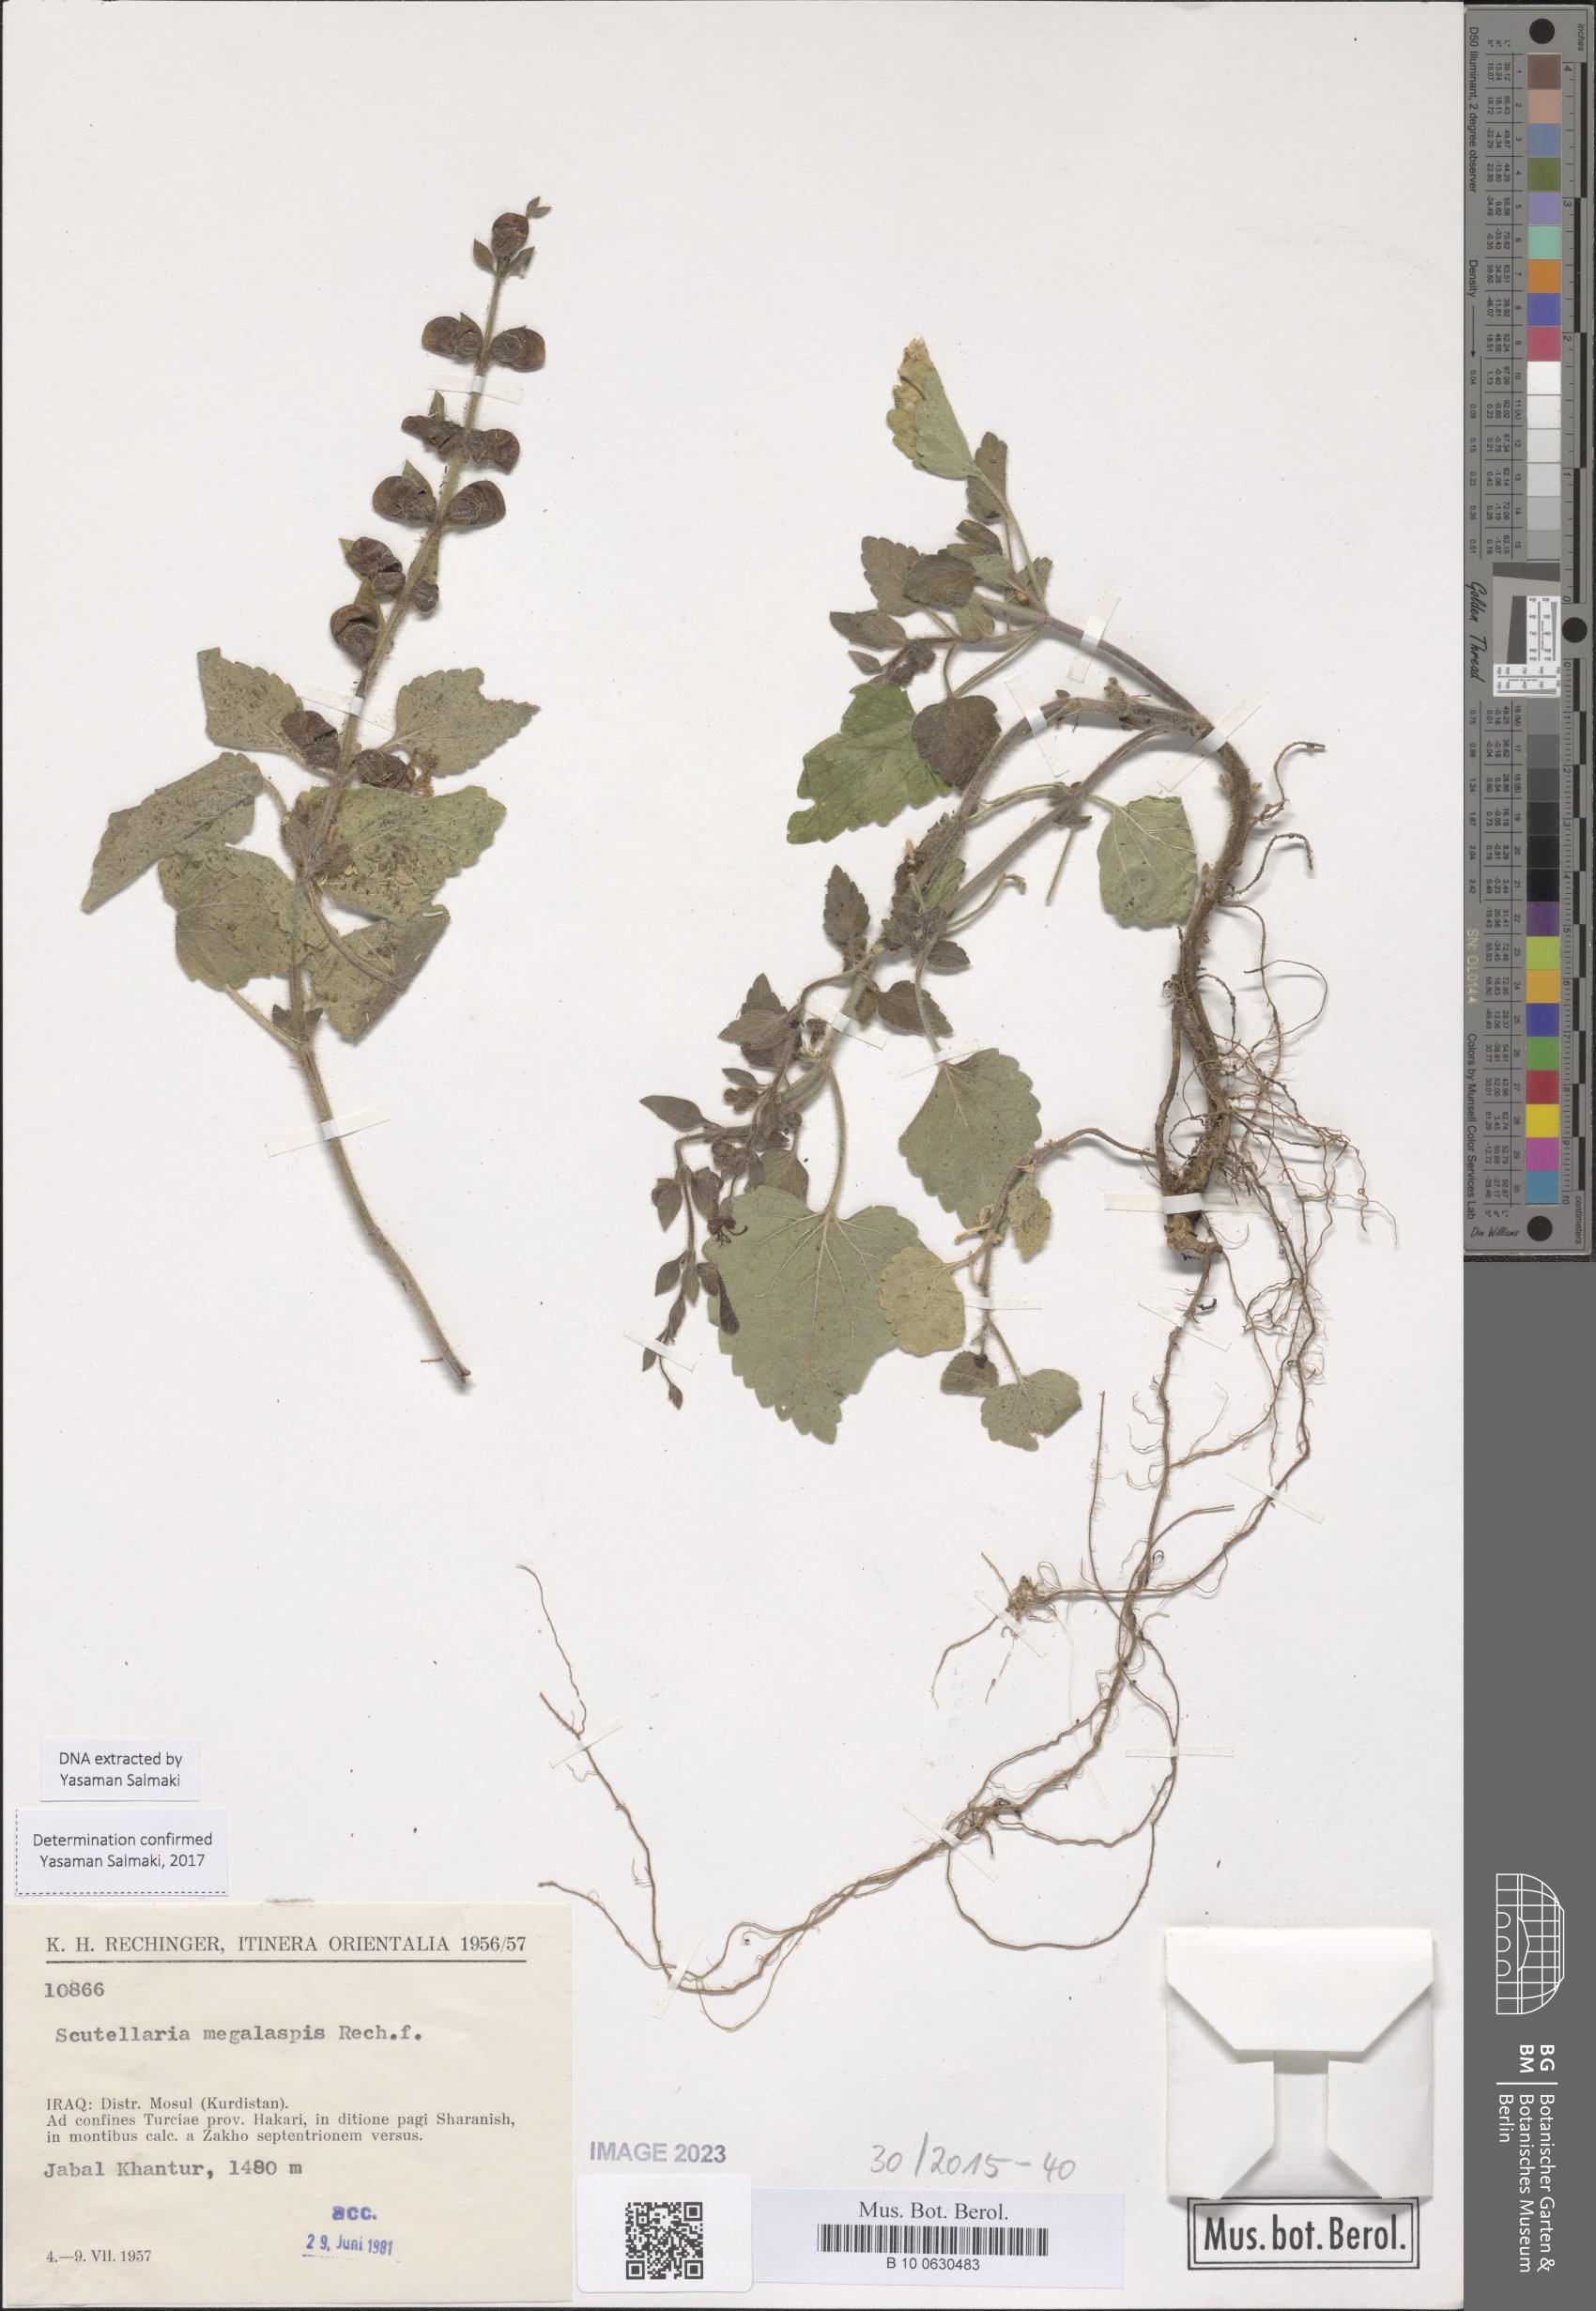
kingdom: Plantae
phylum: Tracheophyta
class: Magnoliopsida
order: Lamiales
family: Lamiaceae
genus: Scutellaria
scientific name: Scutellaria megalaspis
